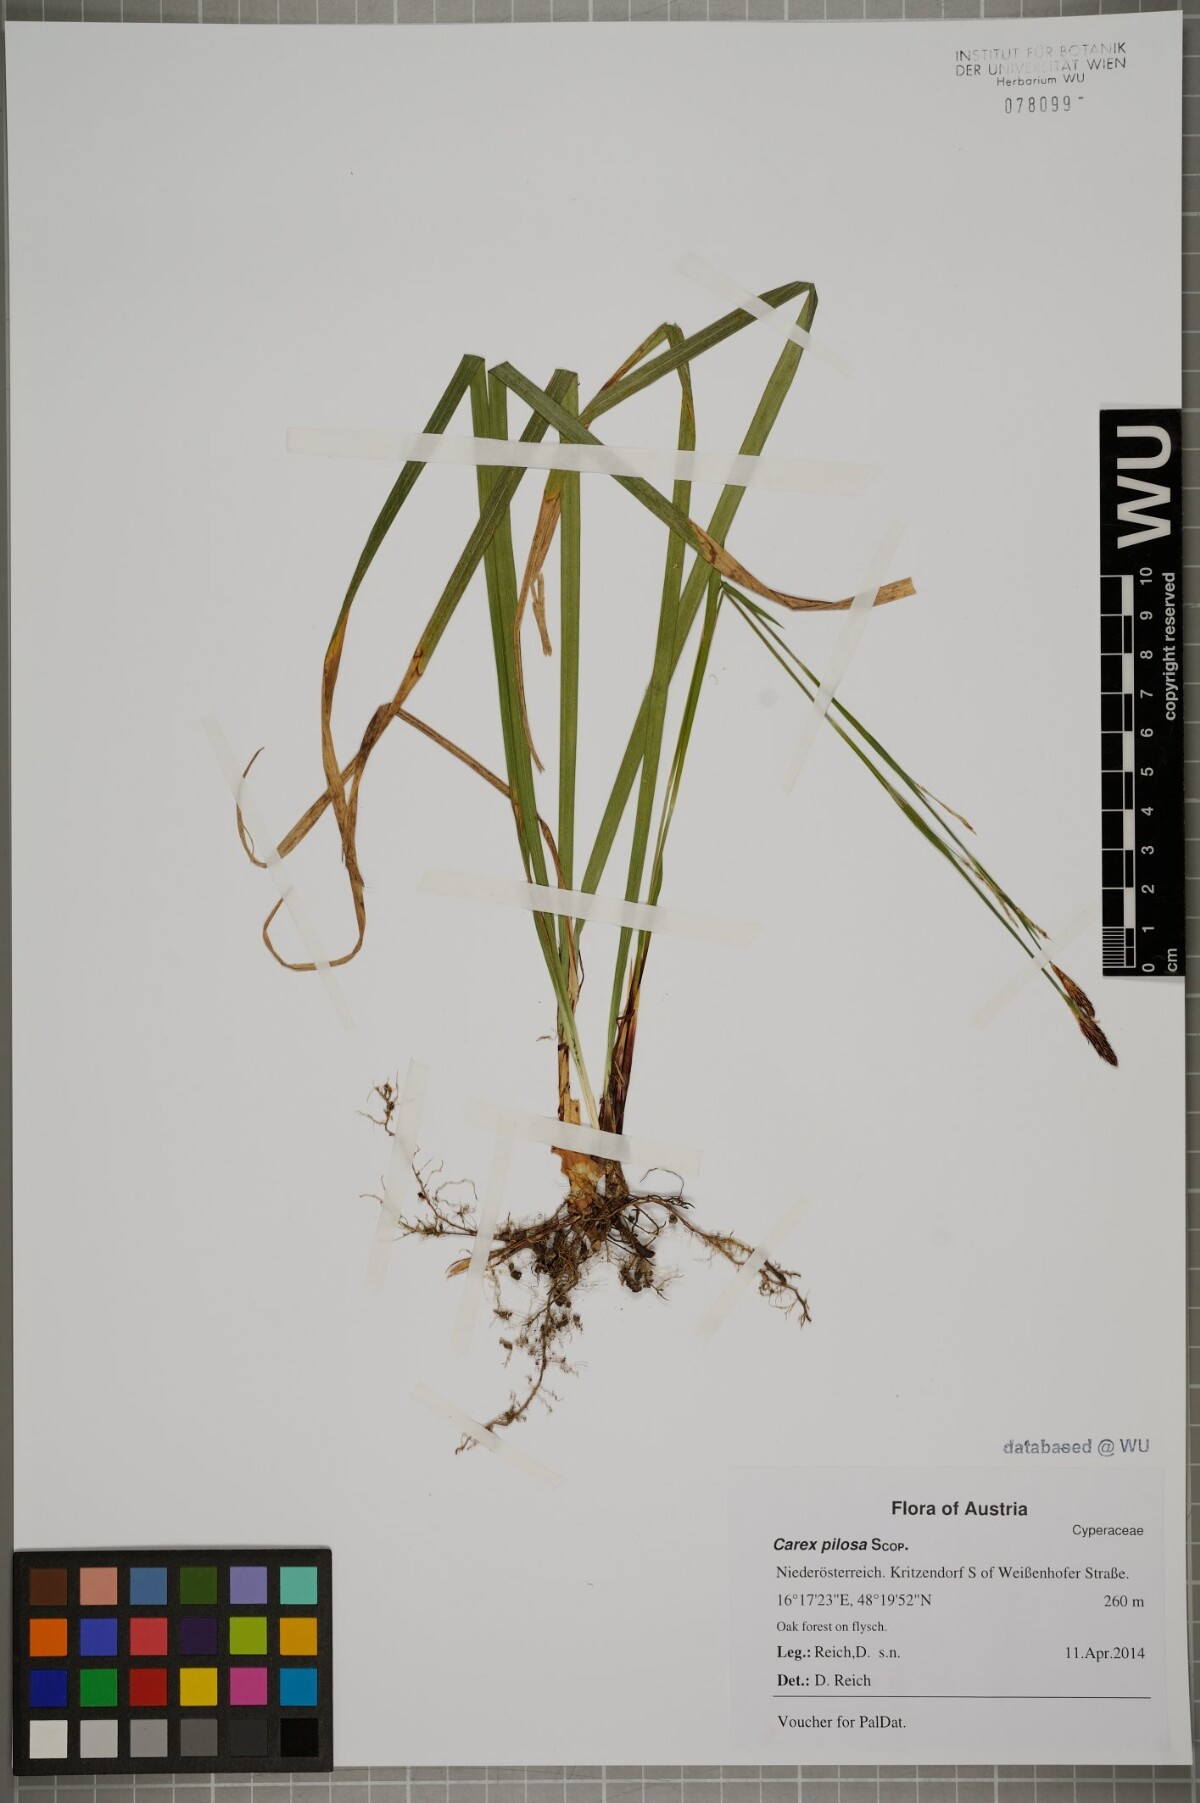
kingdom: Plantae
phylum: Tracheophyta
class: Liliopsida
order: Poales
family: Cyperaceae
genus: Carex
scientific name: Carex pilosa
